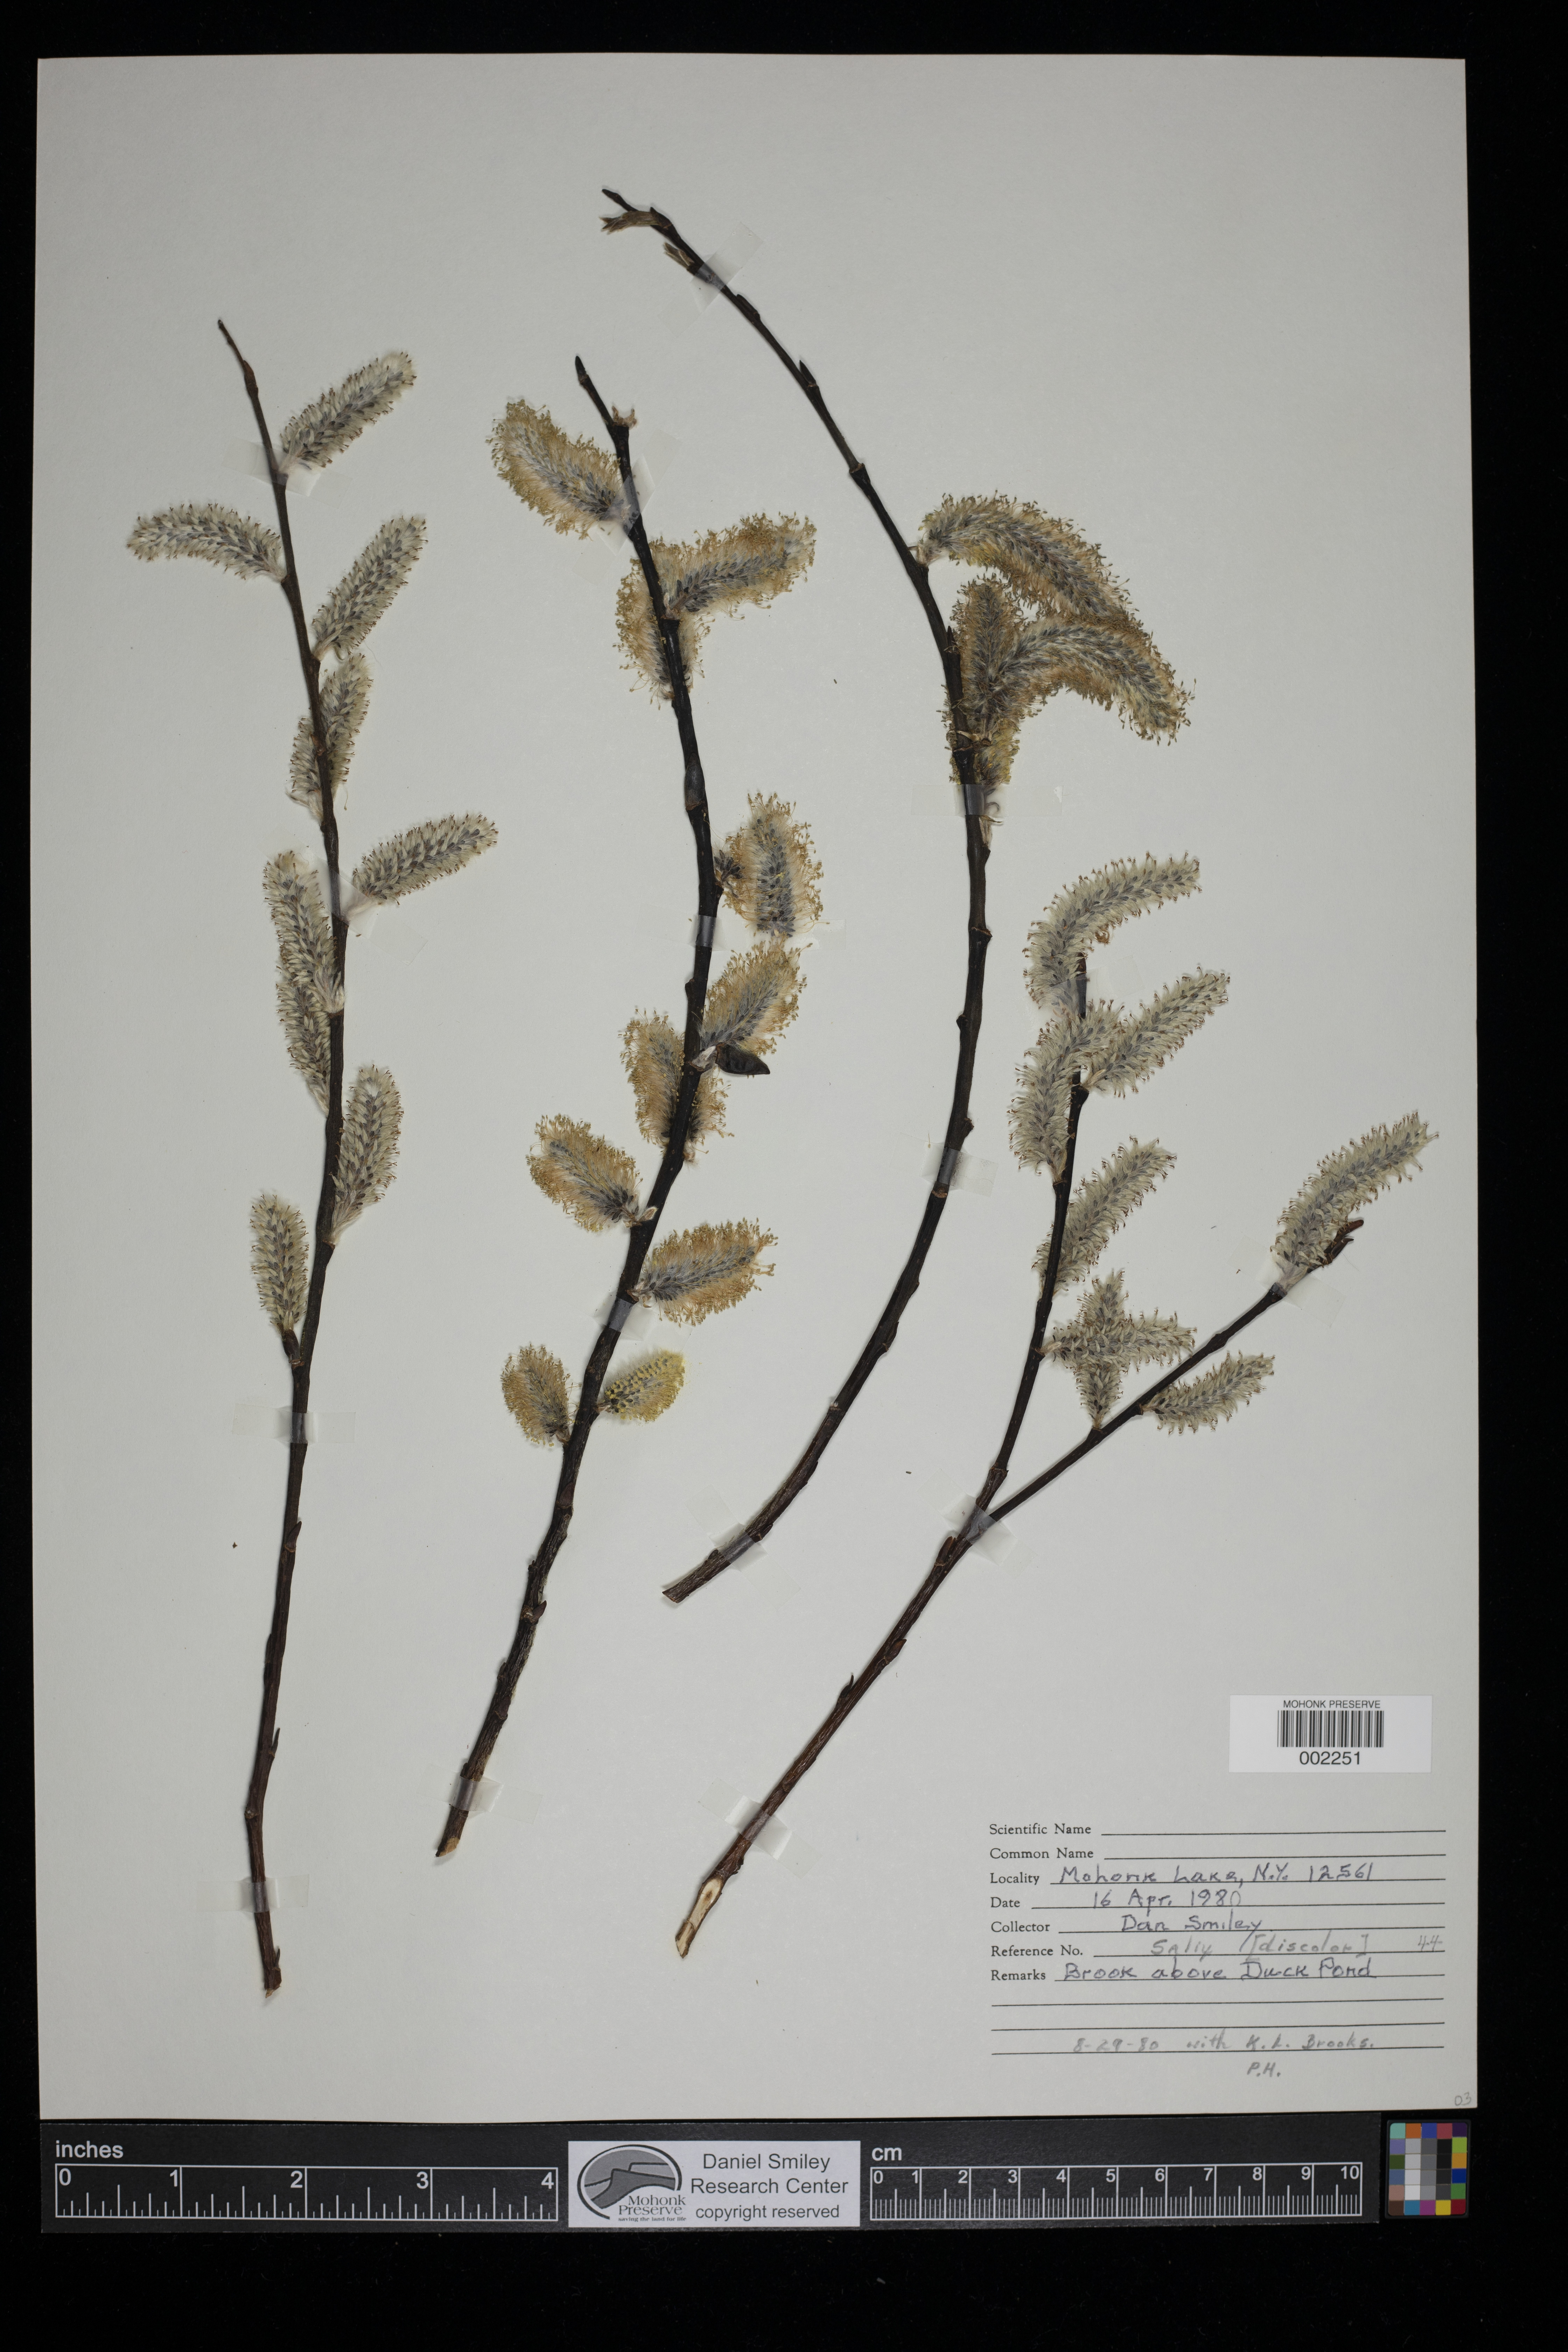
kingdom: Plantae
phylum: Tracheophyta
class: Magnoliopsida
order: Malpighiales
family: Salicaceae
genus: Salix
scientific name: Salix discolor
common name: Glaucous willow
